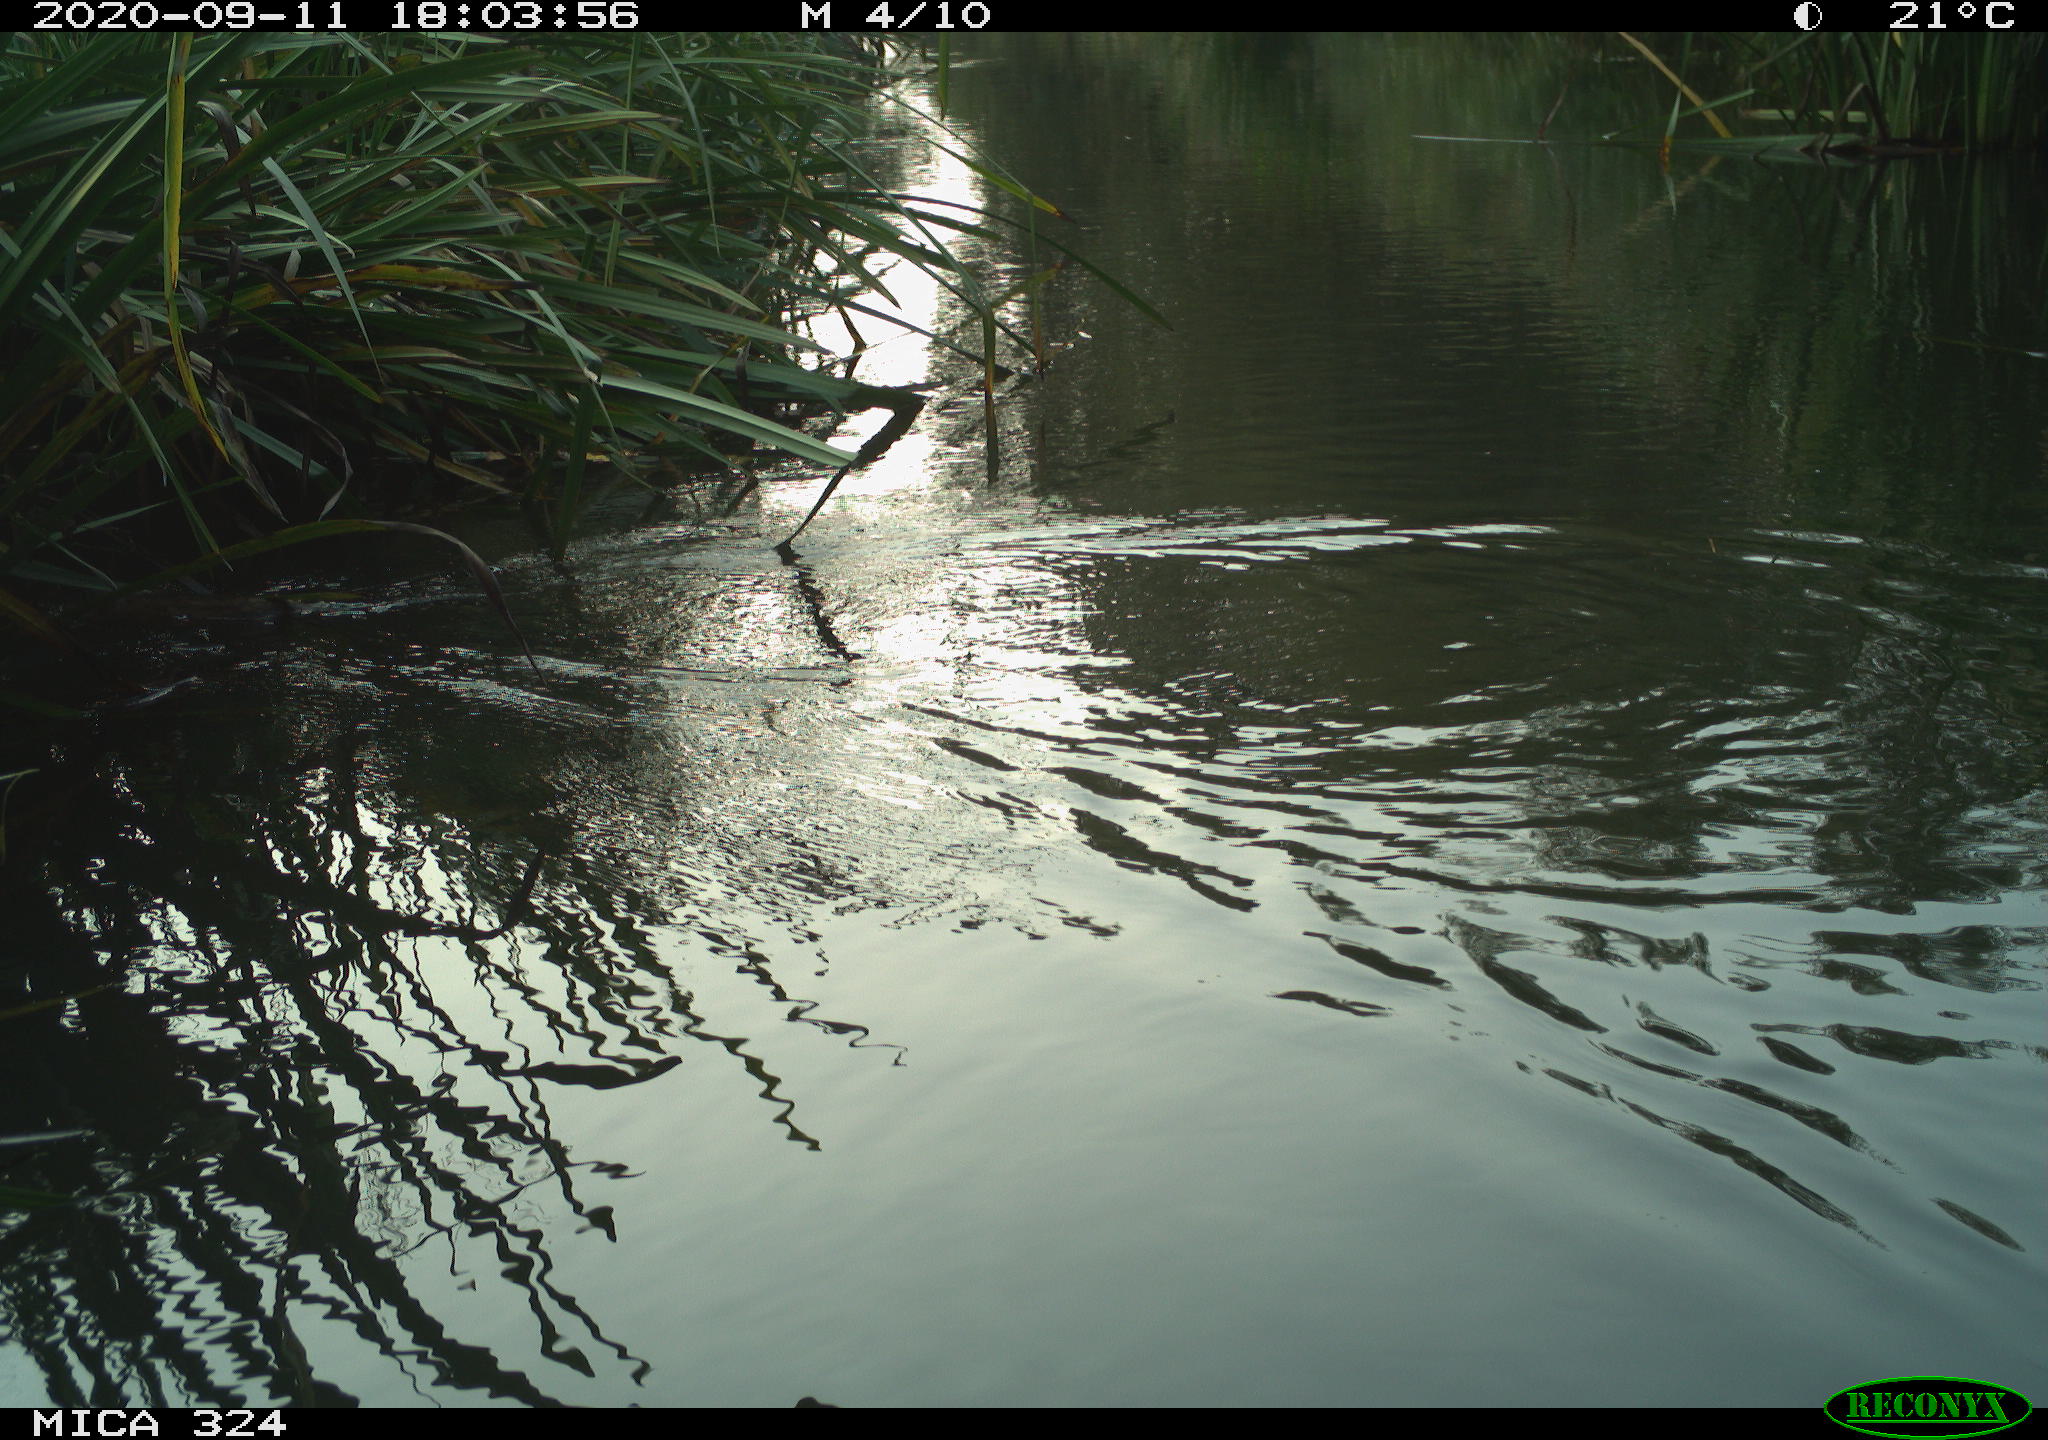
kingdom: Animalia
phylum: Chordata
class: Mammalia
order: Rodentia
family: Cricetidae
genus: Ondatra
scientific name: Ondatra zibethicus
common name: Muskrat
